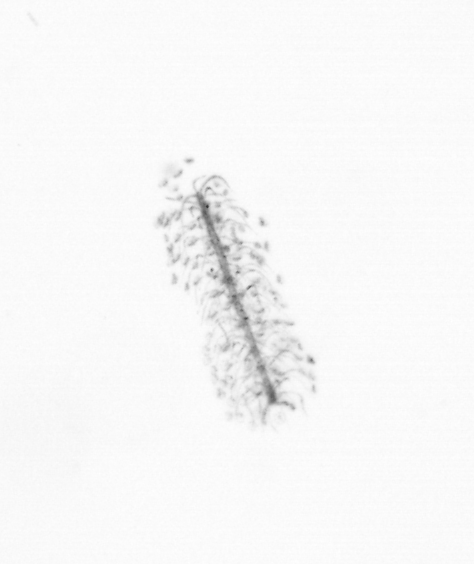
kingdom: Chromista
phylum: Ochrophyta
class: Bacillariophyceae
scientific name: Bacillariophyceae
